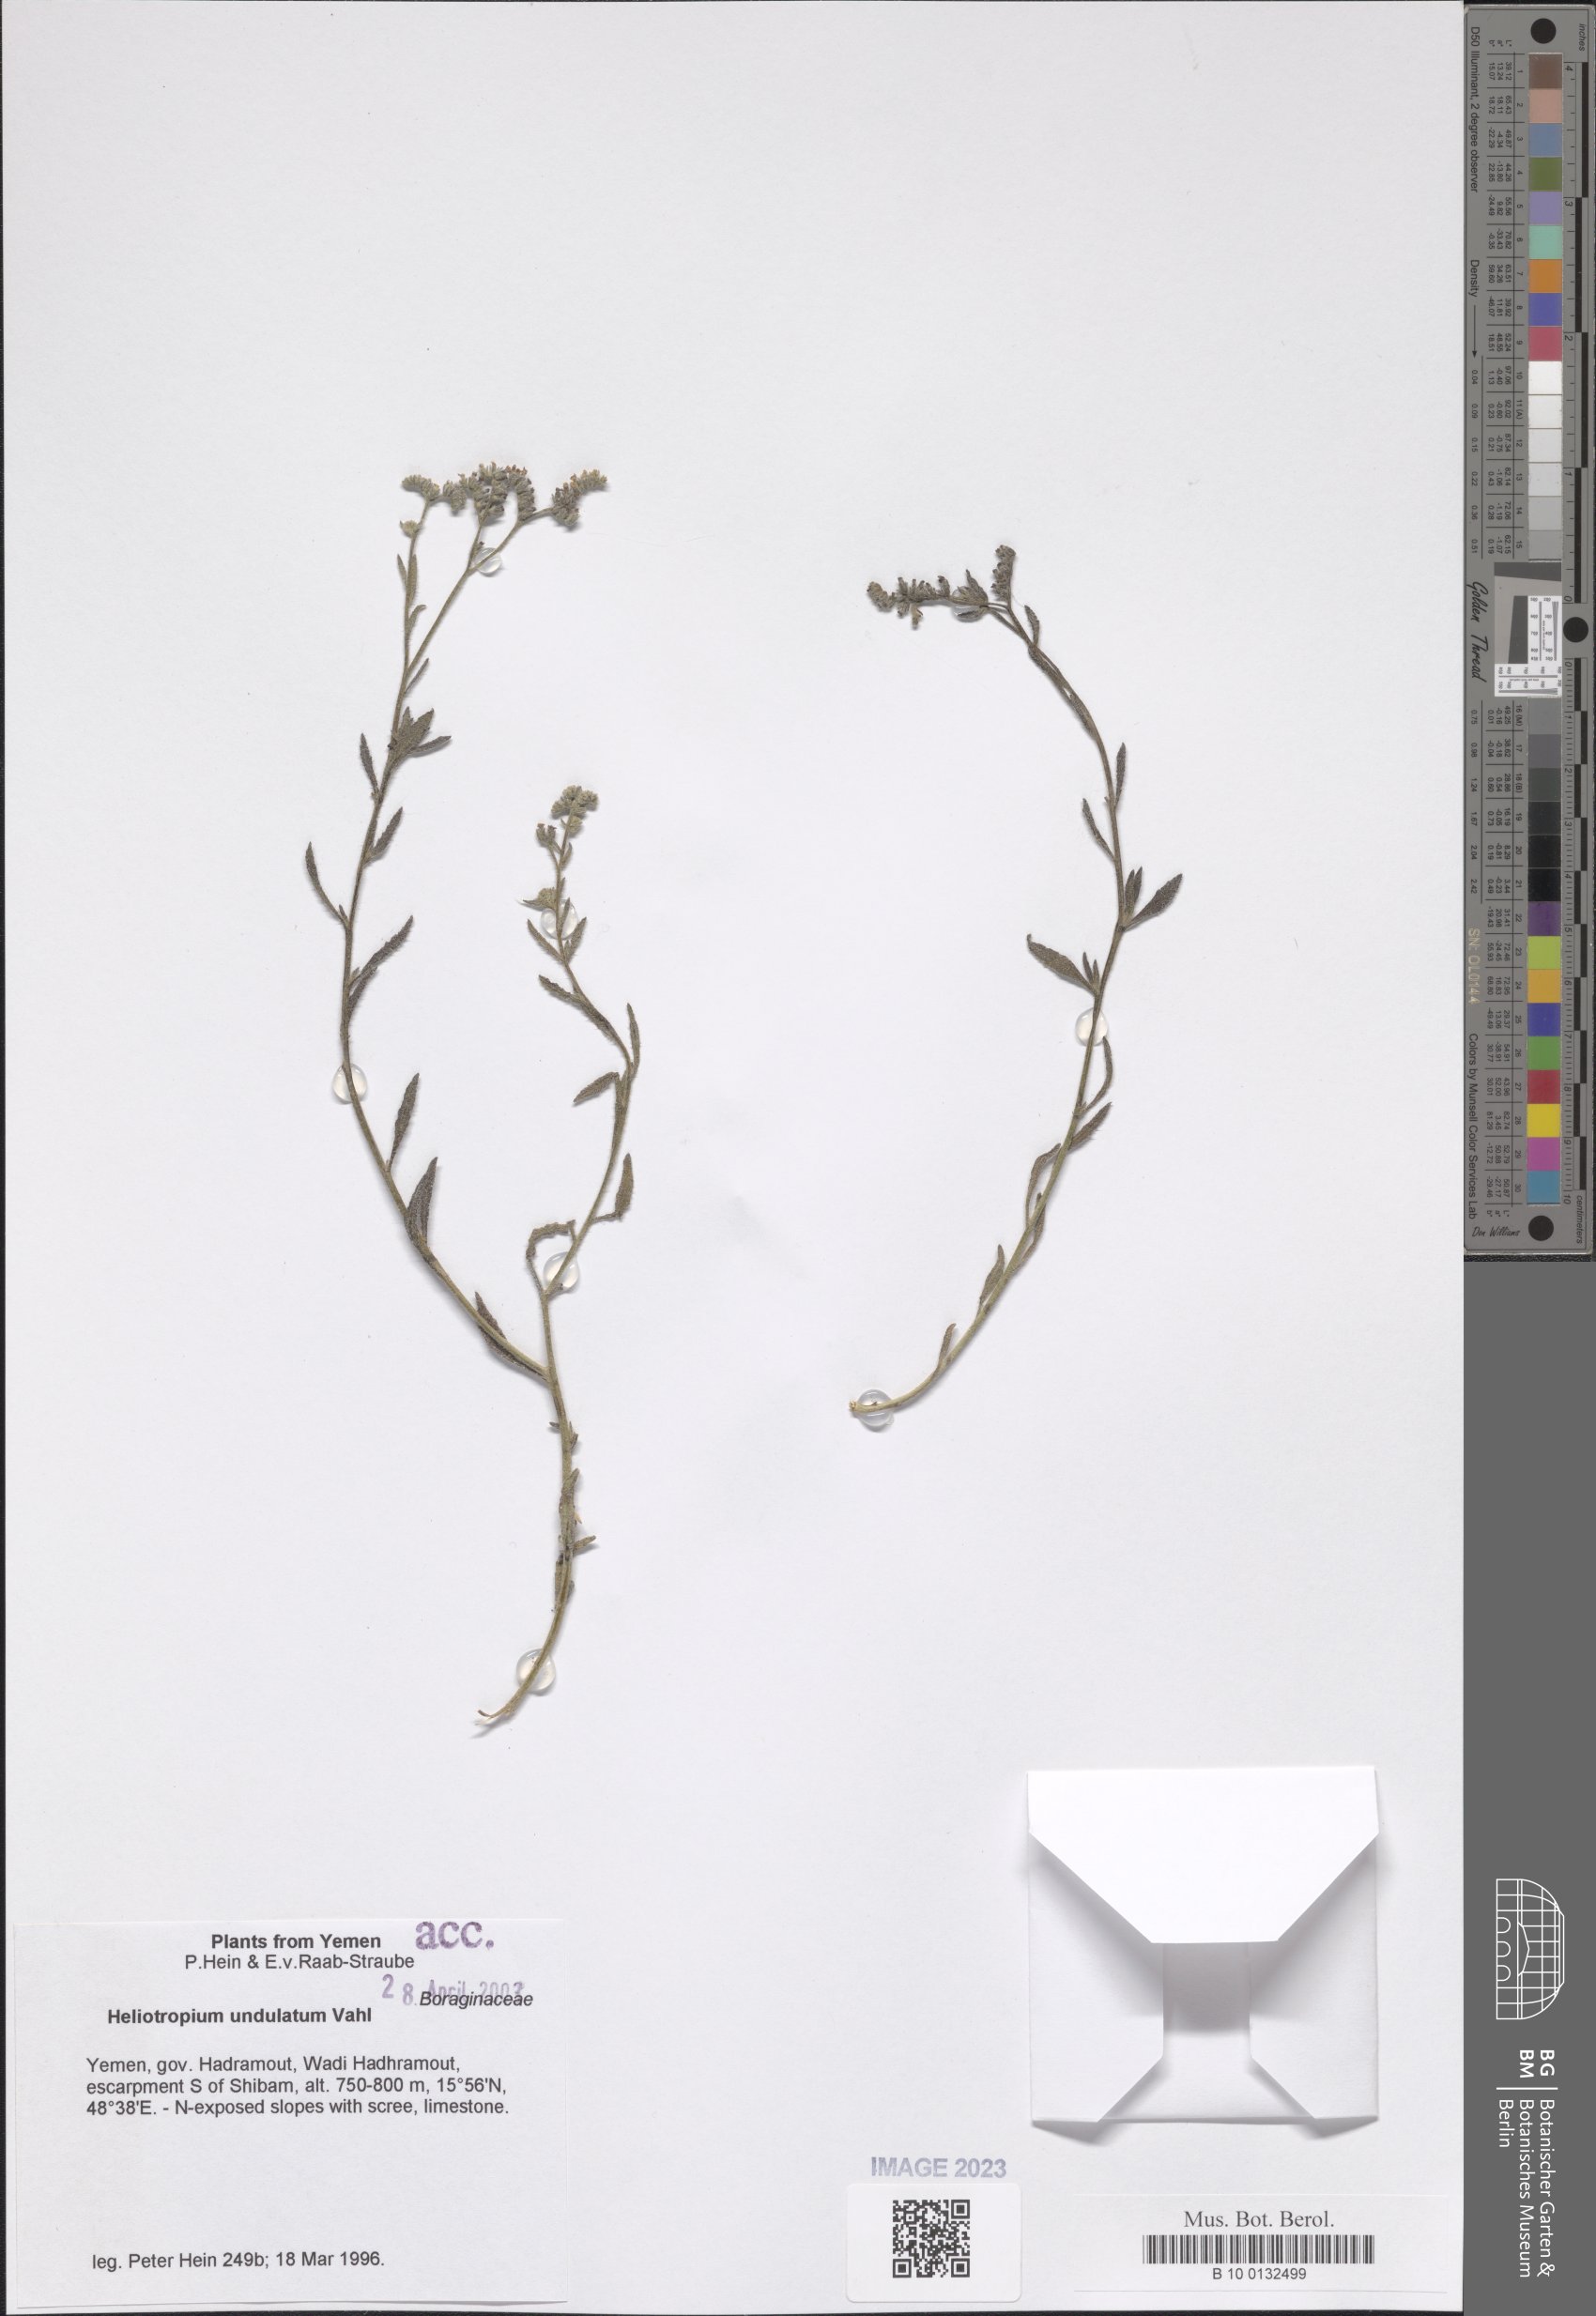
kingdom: Plantae
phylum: Tracheophyta
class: Magnoliopsida
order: Boraginales
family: Heliotropiaceae
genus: Heliotropium
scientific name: Heliotropium bacciferum
